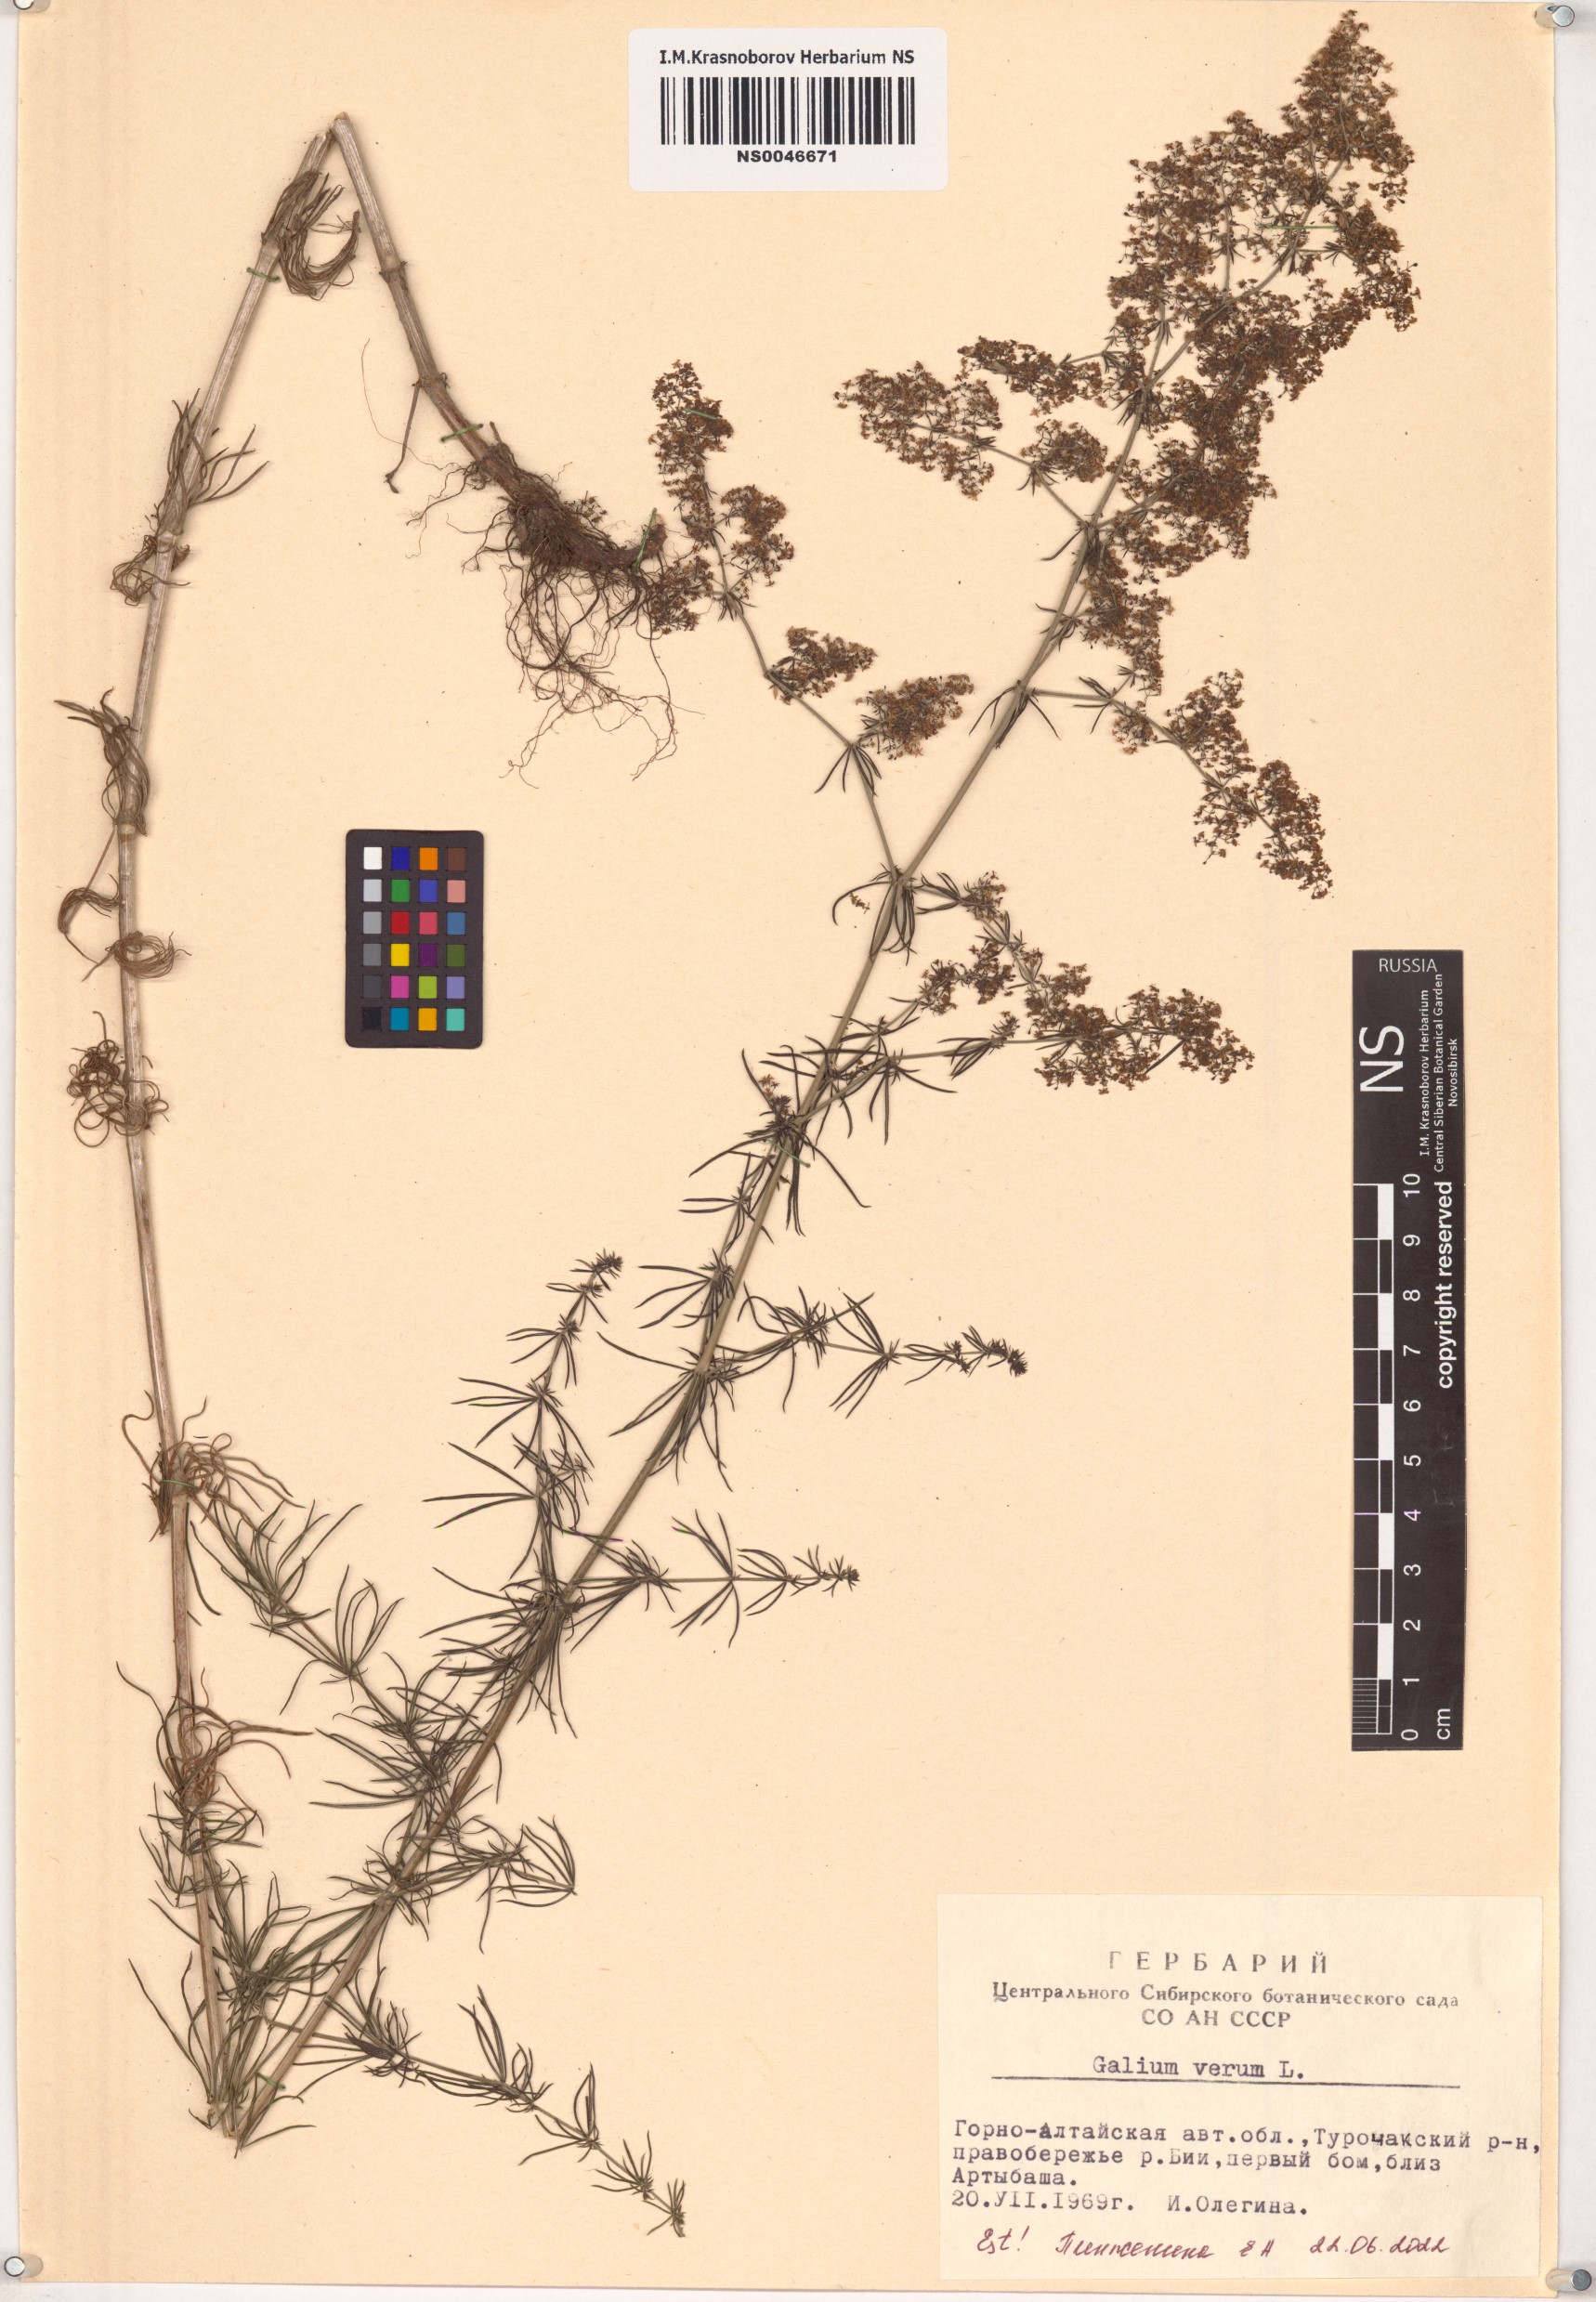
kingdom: Plantae
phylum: Tracheophyta
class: Magnoliopsida
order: Gentianales
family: Rubiaceae
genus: Galium
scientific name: Galium verum
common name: Lady's bedstraw
